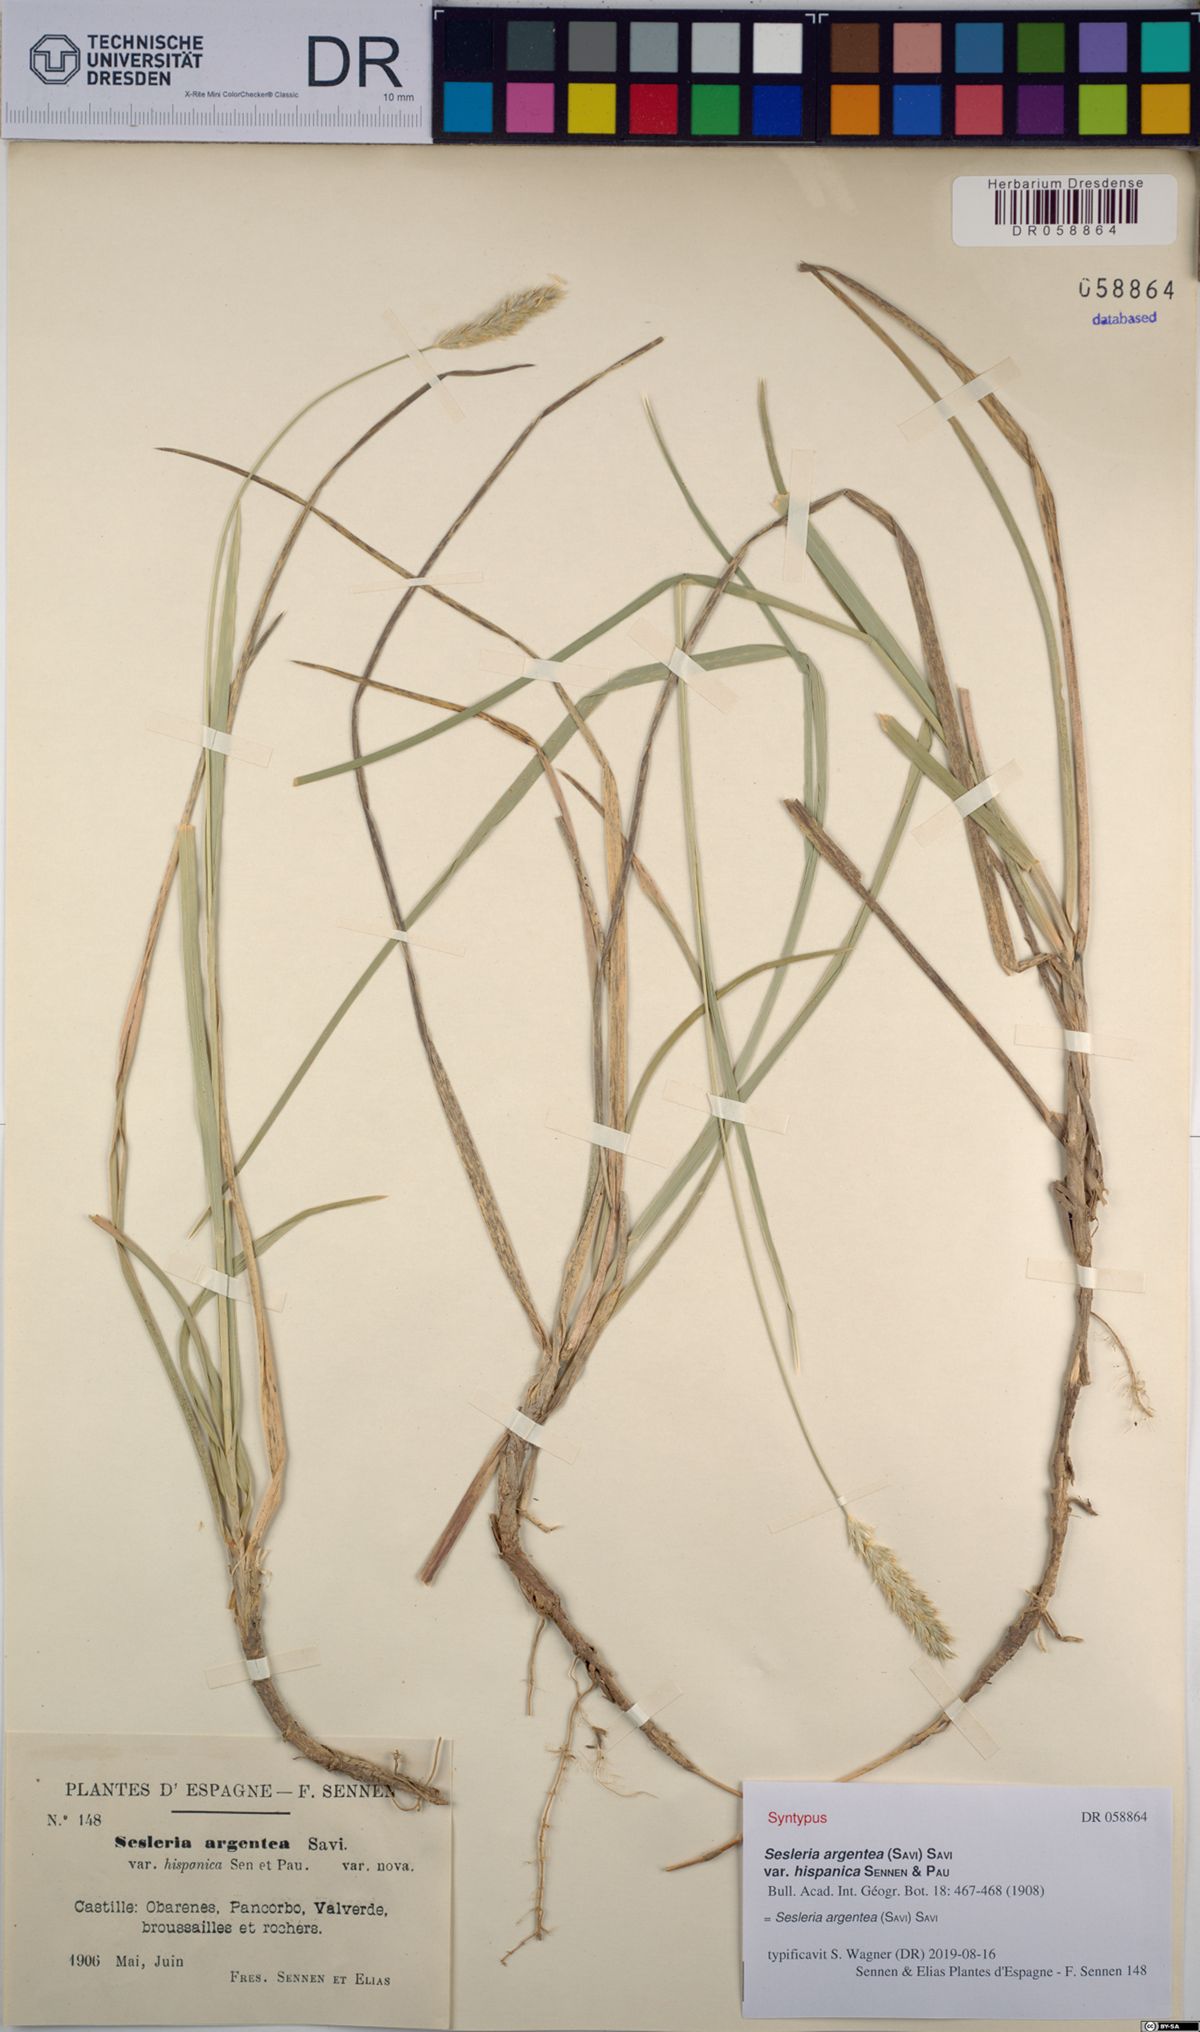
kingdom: Plantae
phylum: Tracheophyta
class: Liliopsida
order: Poales
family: Poaceae
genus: Sesleria
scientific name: Sesleria argentea
